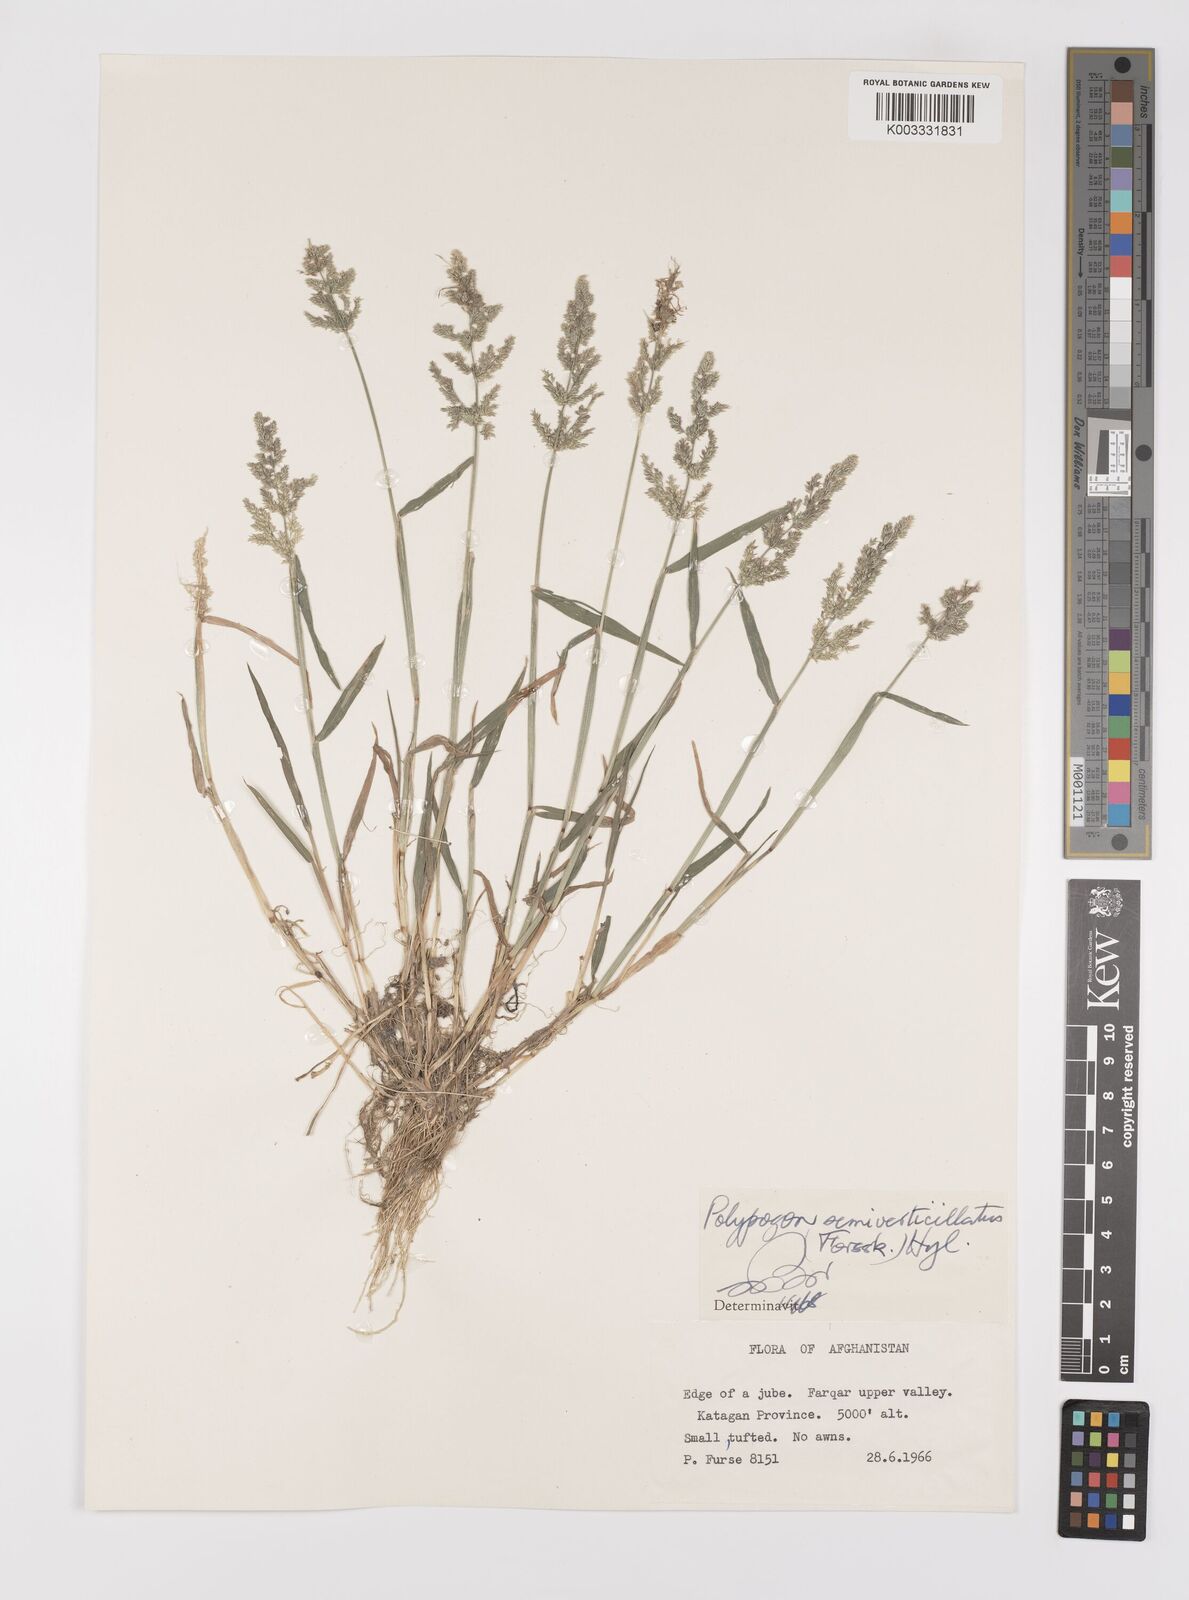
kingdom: Plantae
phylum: Tracheophyta
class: Liliopsida
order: Poales
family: Poaceae
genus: Polypogon
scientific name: Polypogon viridis
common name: Water bent
